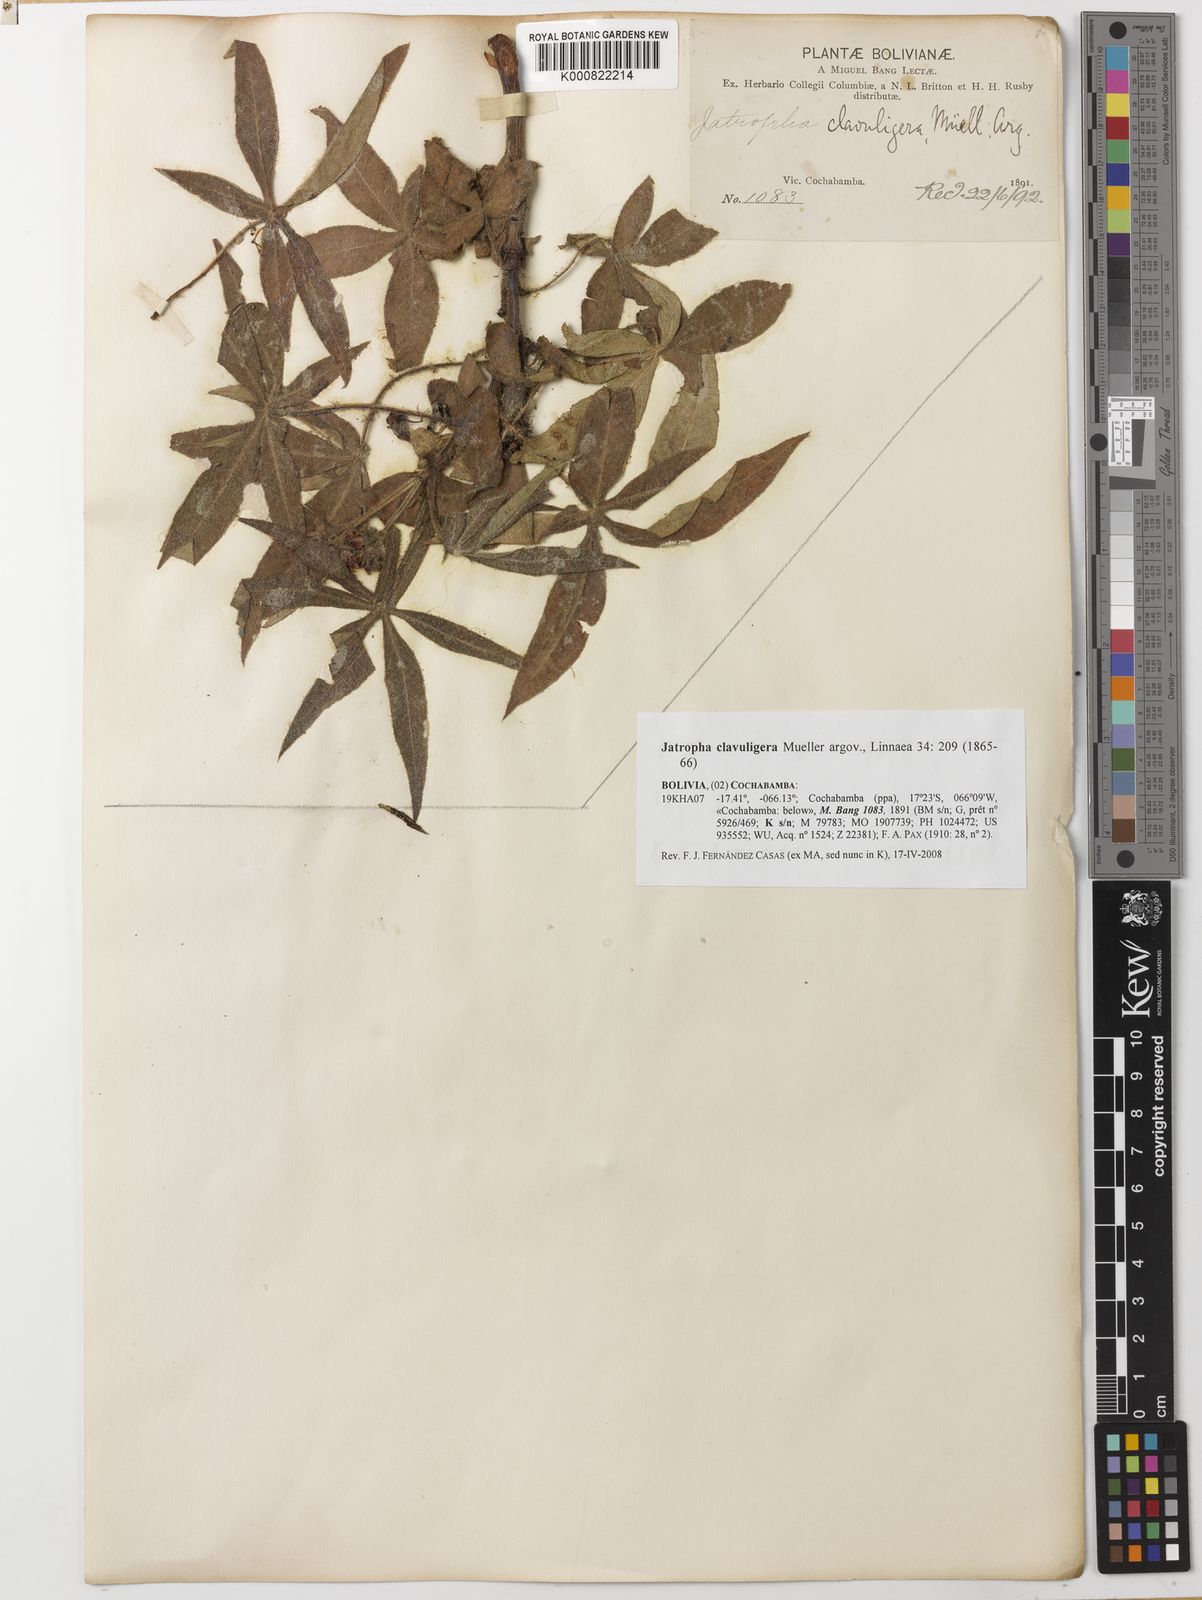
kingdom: Plantae
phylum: Tracheophyta
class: Magnoliopsida
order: Malpighiales
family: Euphorbiaceae
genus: Jatropha
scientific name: Jatropha
